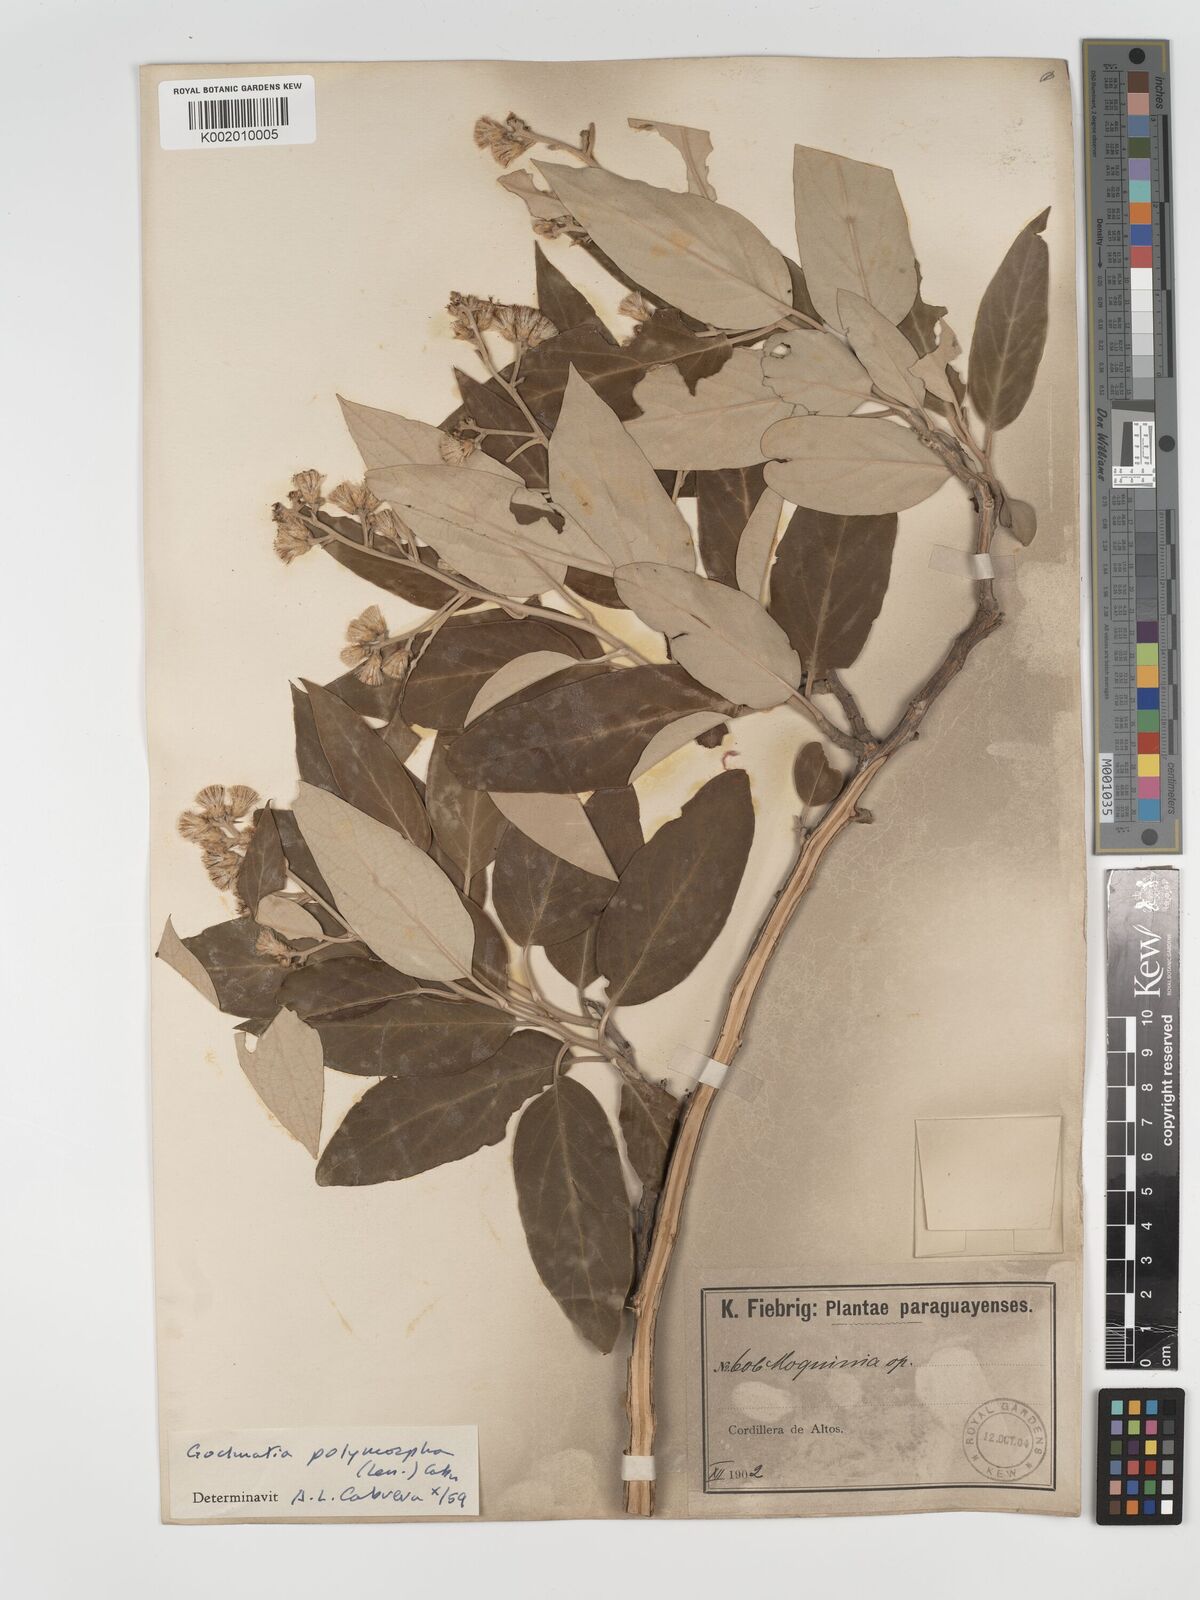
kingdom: Plantae
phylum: Tracheophyta
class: Magnoliopsida
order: Asterales
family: Asteraceae
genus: Moquiniastrum
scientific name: Moquiniastrum polymorphum
